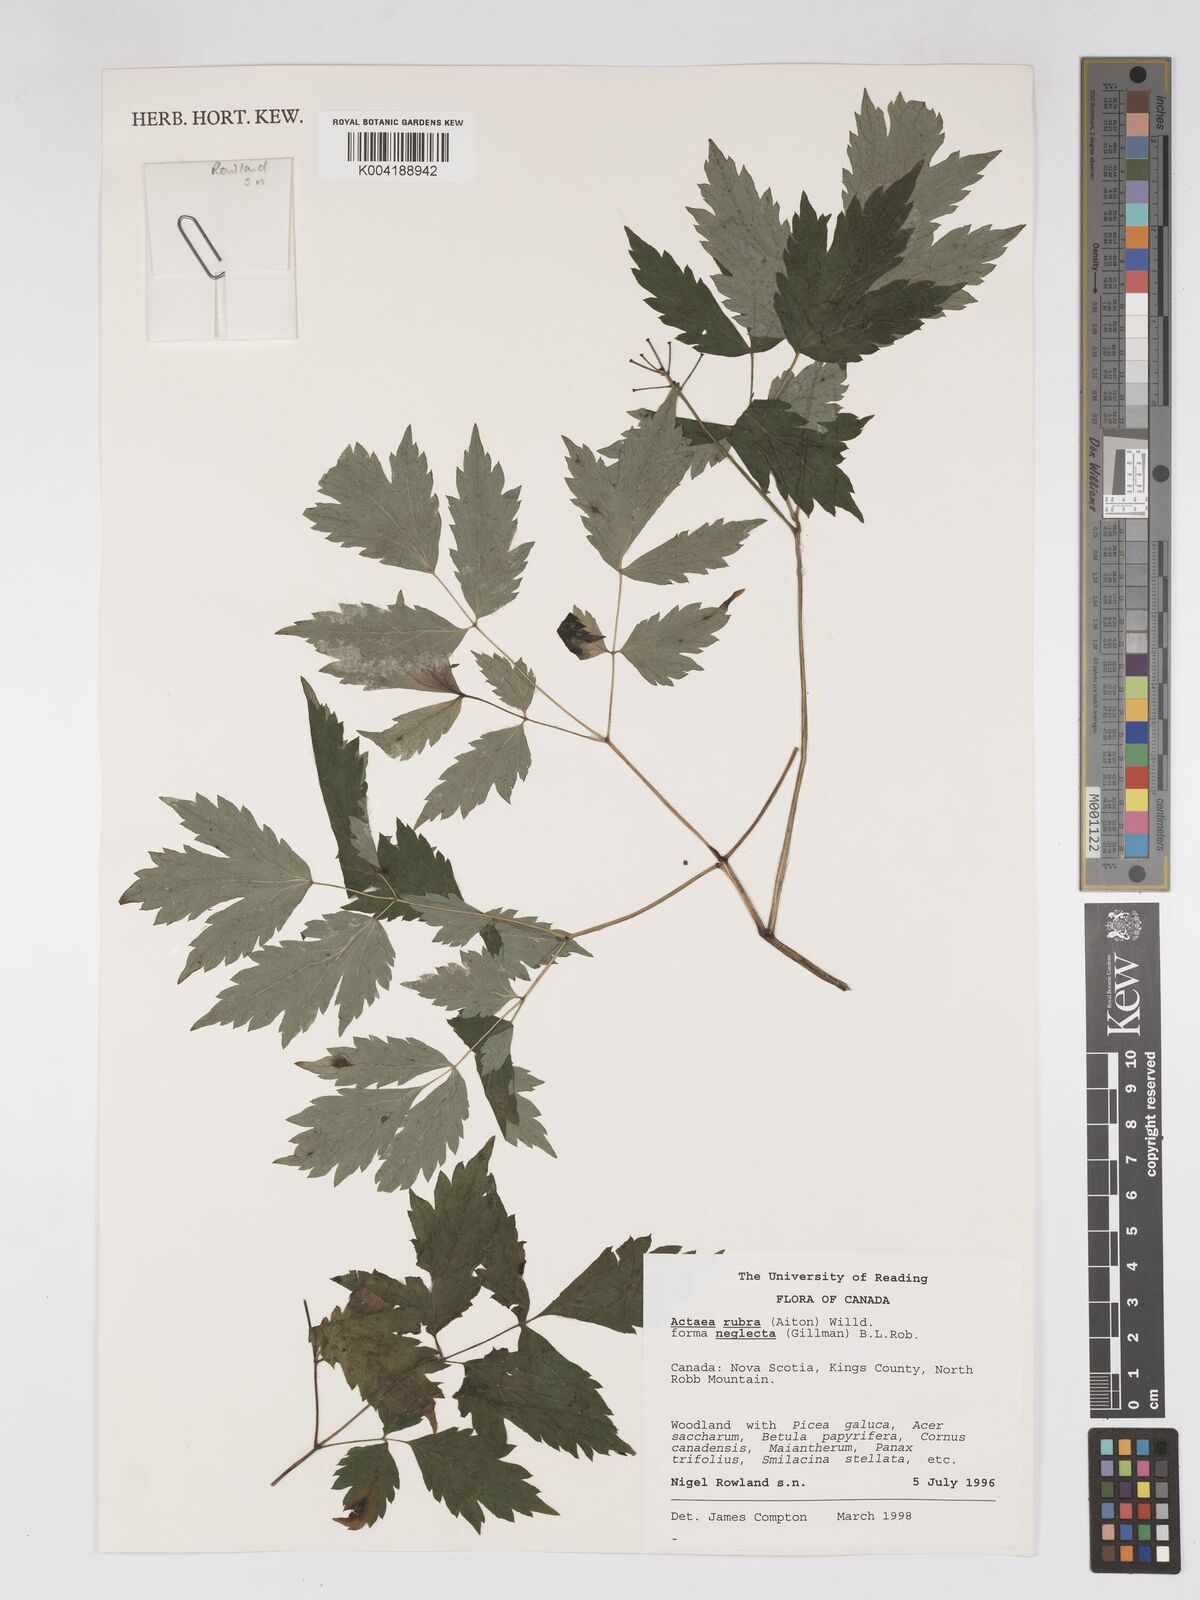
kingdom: Plantae
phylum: Tracheophyta
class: Magnoliopsida
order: Ranunculales
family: Ranunculaceae
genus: Actaea
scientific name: Actaea rubra
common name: Red baneberry
